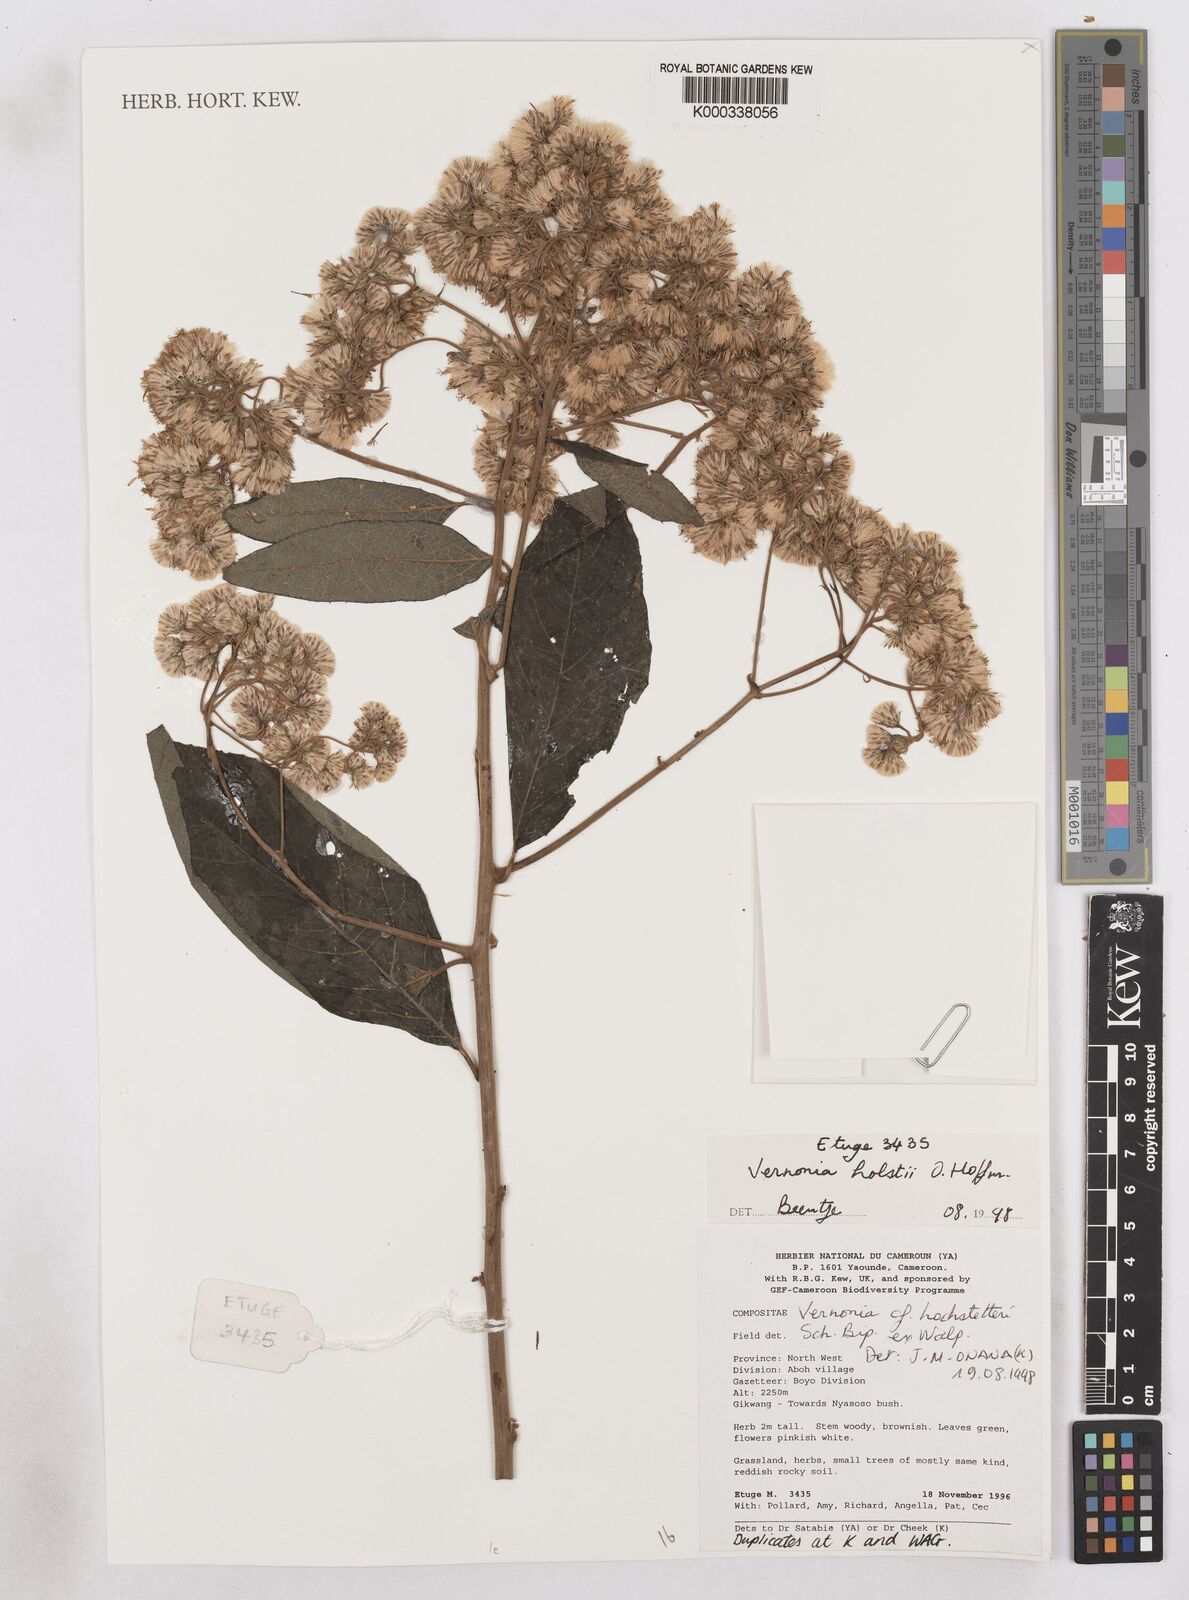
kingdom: Plantae
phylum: Tracheophyta
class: Magnoliopsida
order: Asterales
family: Asteraceae
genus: Vernonia
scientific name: Vernonia holstii
